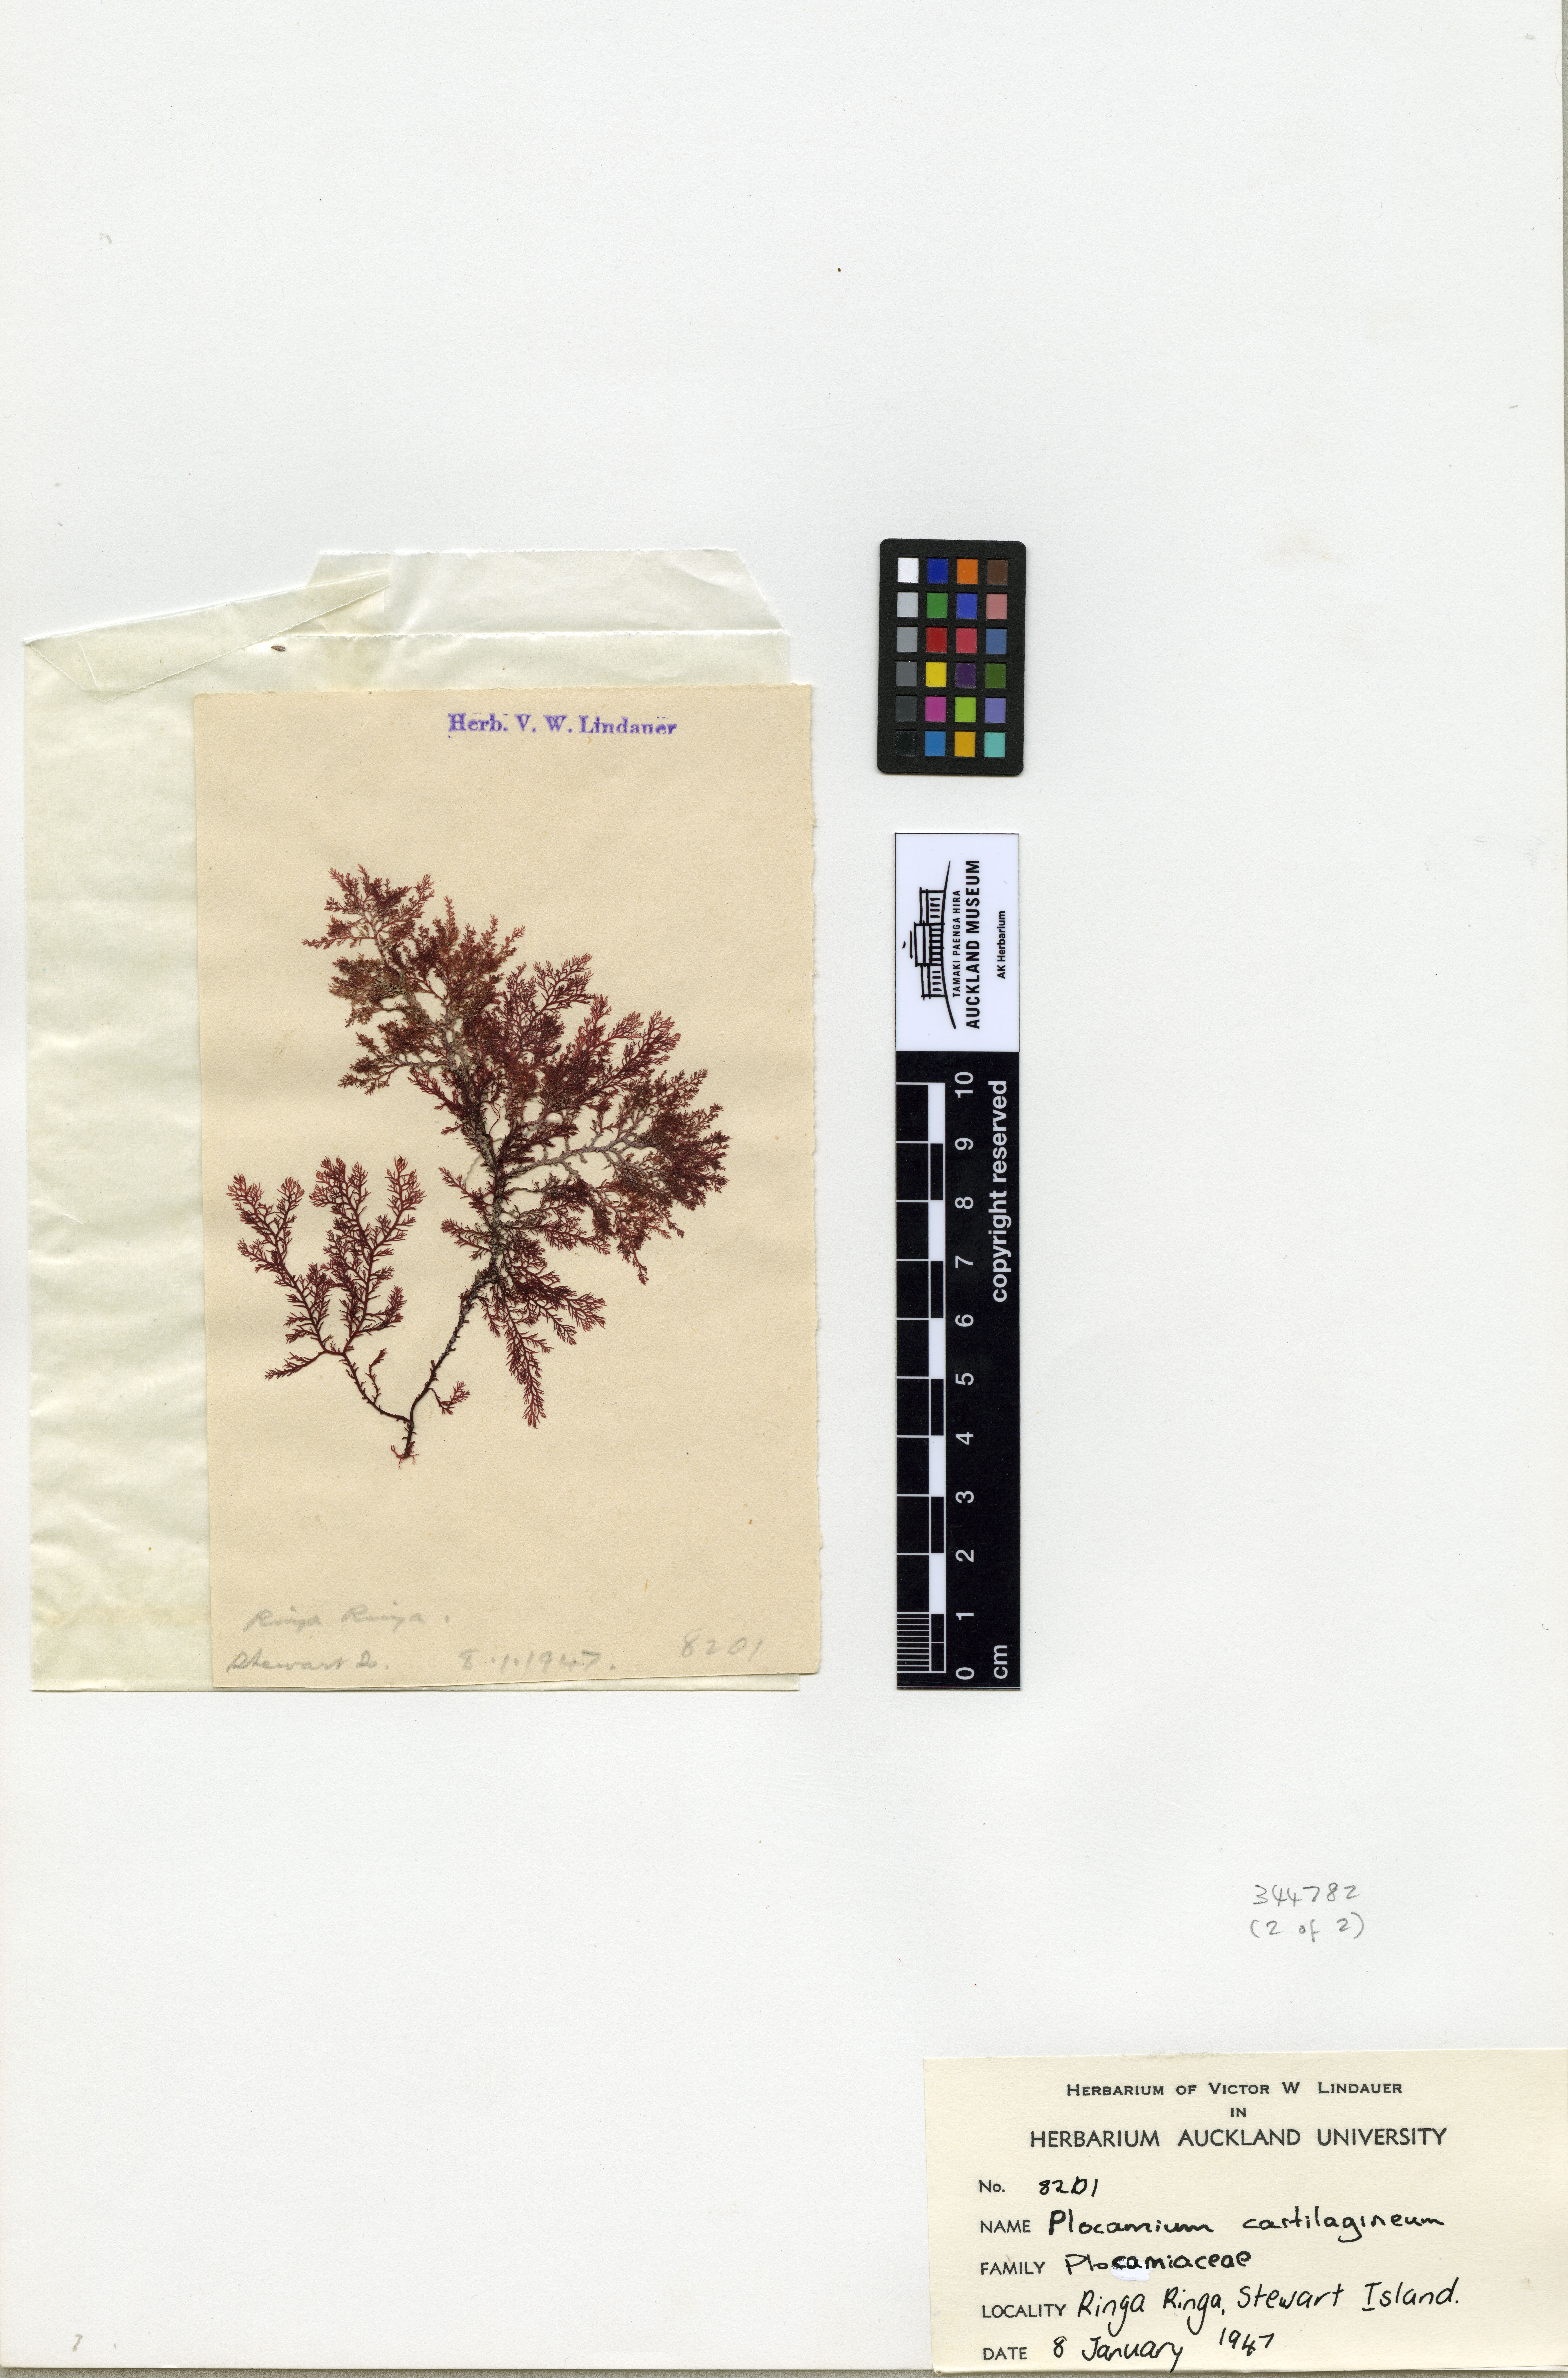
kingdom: Plantae
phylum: Rhodophyta
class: Florideophyceae
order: Plocamiales
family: Plocamiaceae
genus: Plocamium
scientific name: Plocamium cartilagineum
